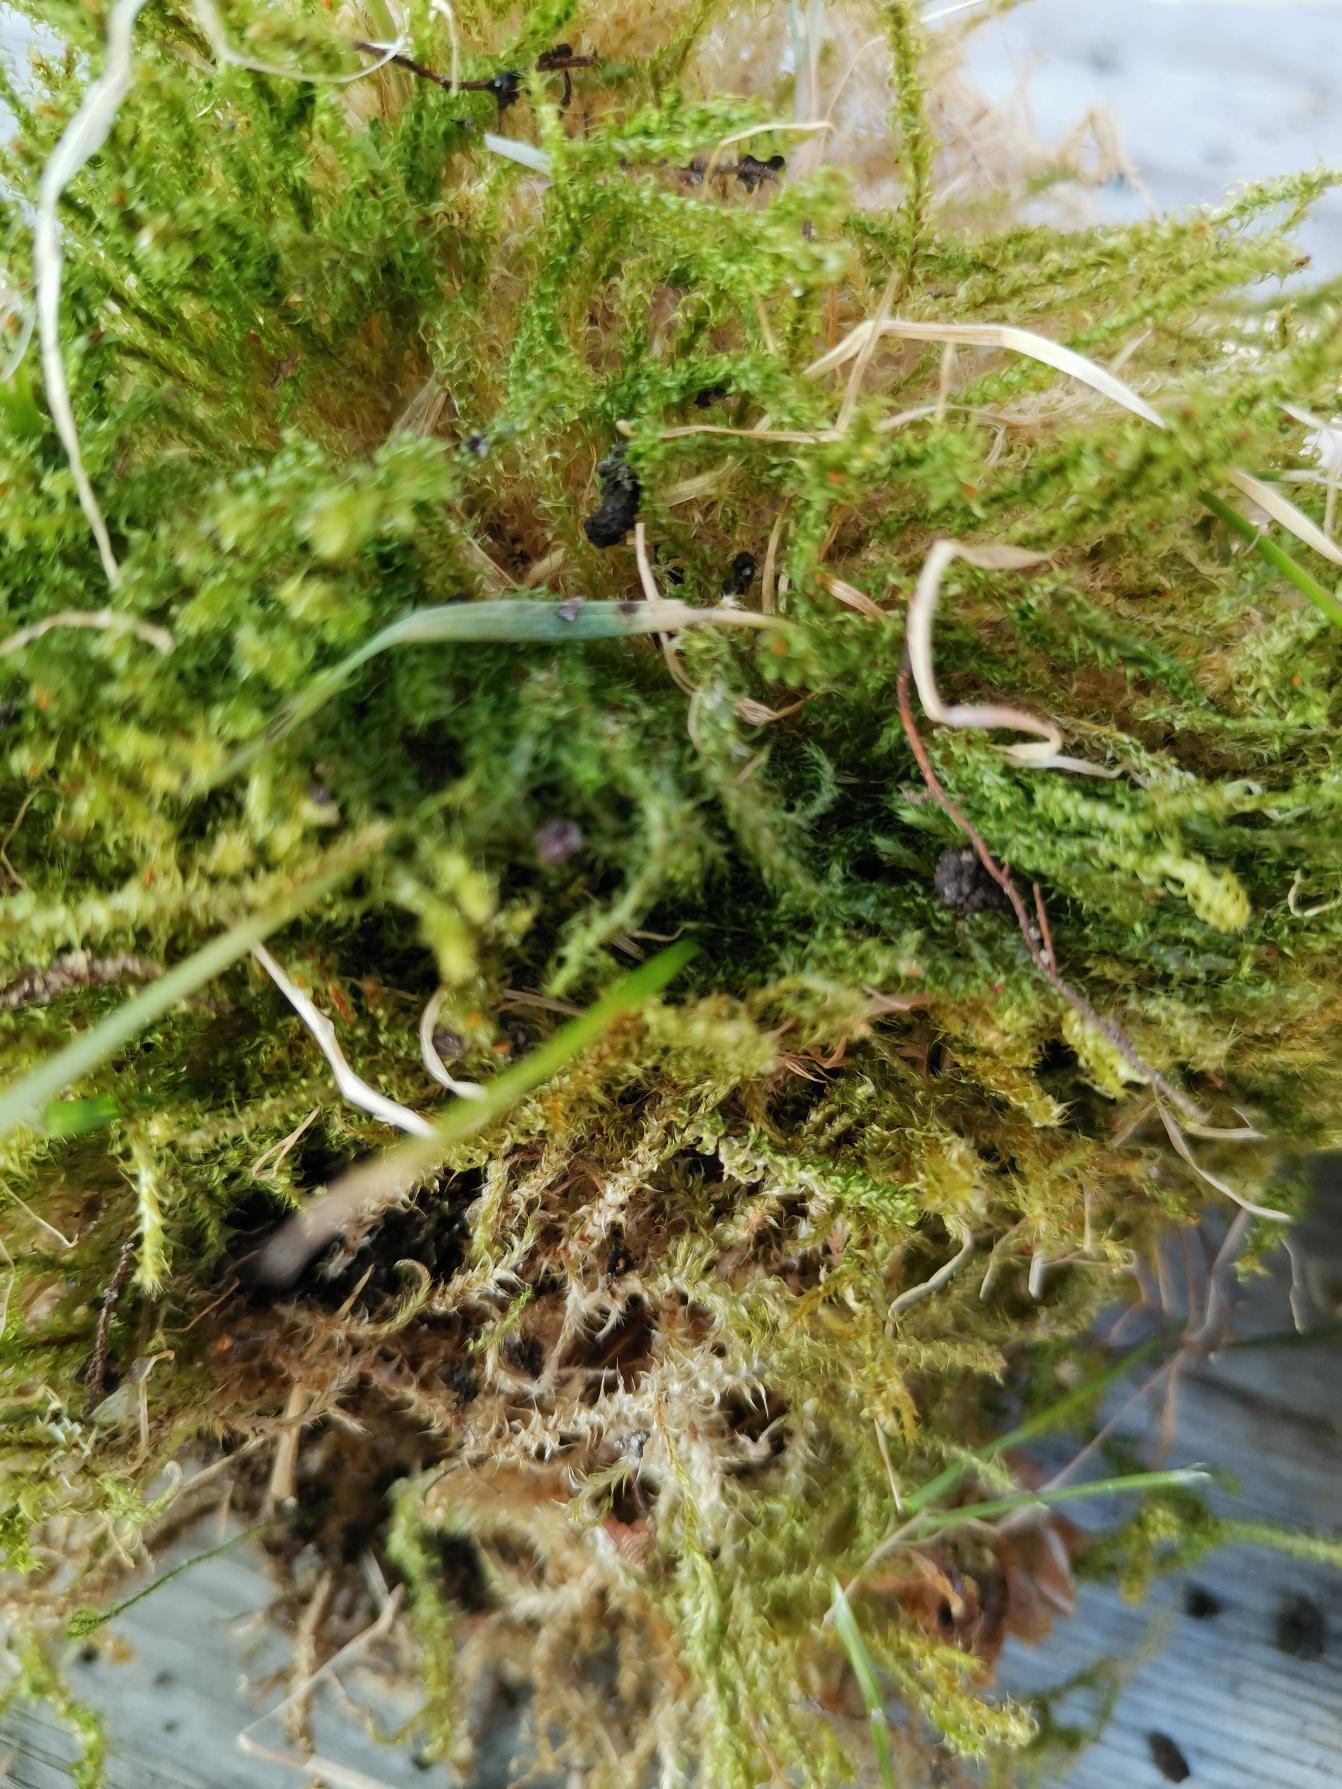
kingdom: Plantae
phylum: Bryophyta
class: Bryopsida
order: Hypnales
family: Hylocomiaceae
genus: Rhytidiadelphus
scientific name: Rhytidiadelphus squarrosus
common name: Plæne-kransemos
